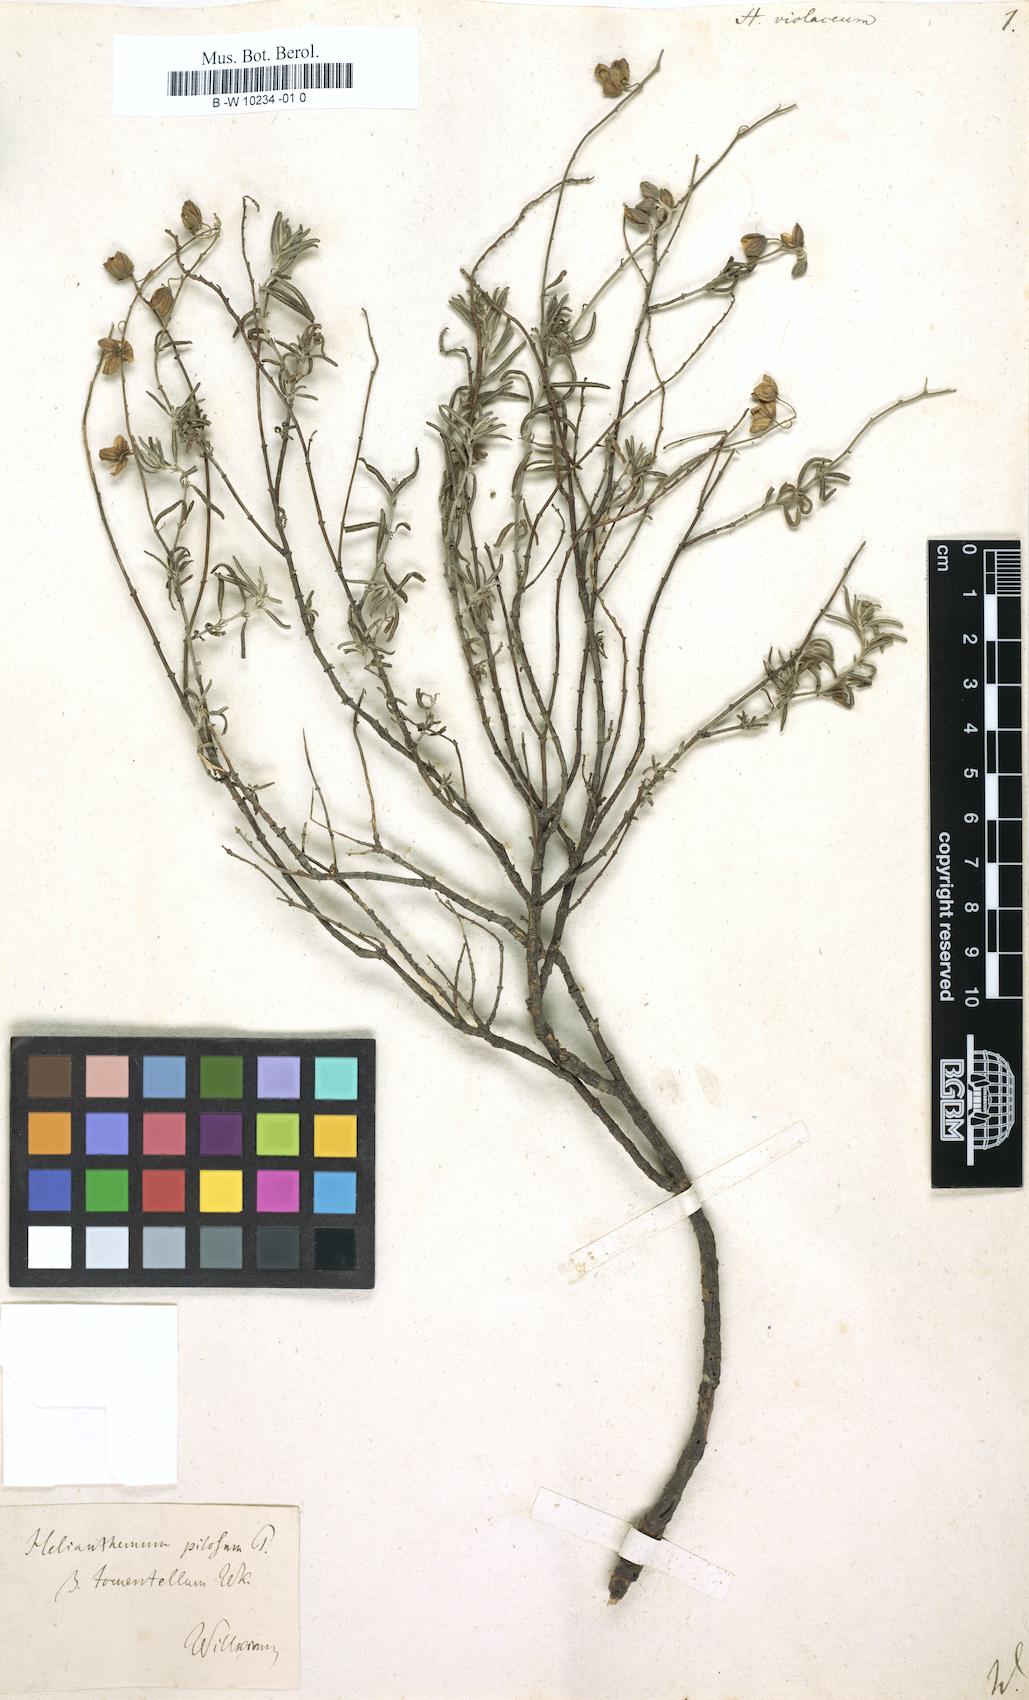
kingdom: Plantae
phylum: Tracheophyta
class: Magnoliopsida
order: Malvales
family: Cistaceae
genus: Helianthemum
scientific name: Helianthemum violaceum
